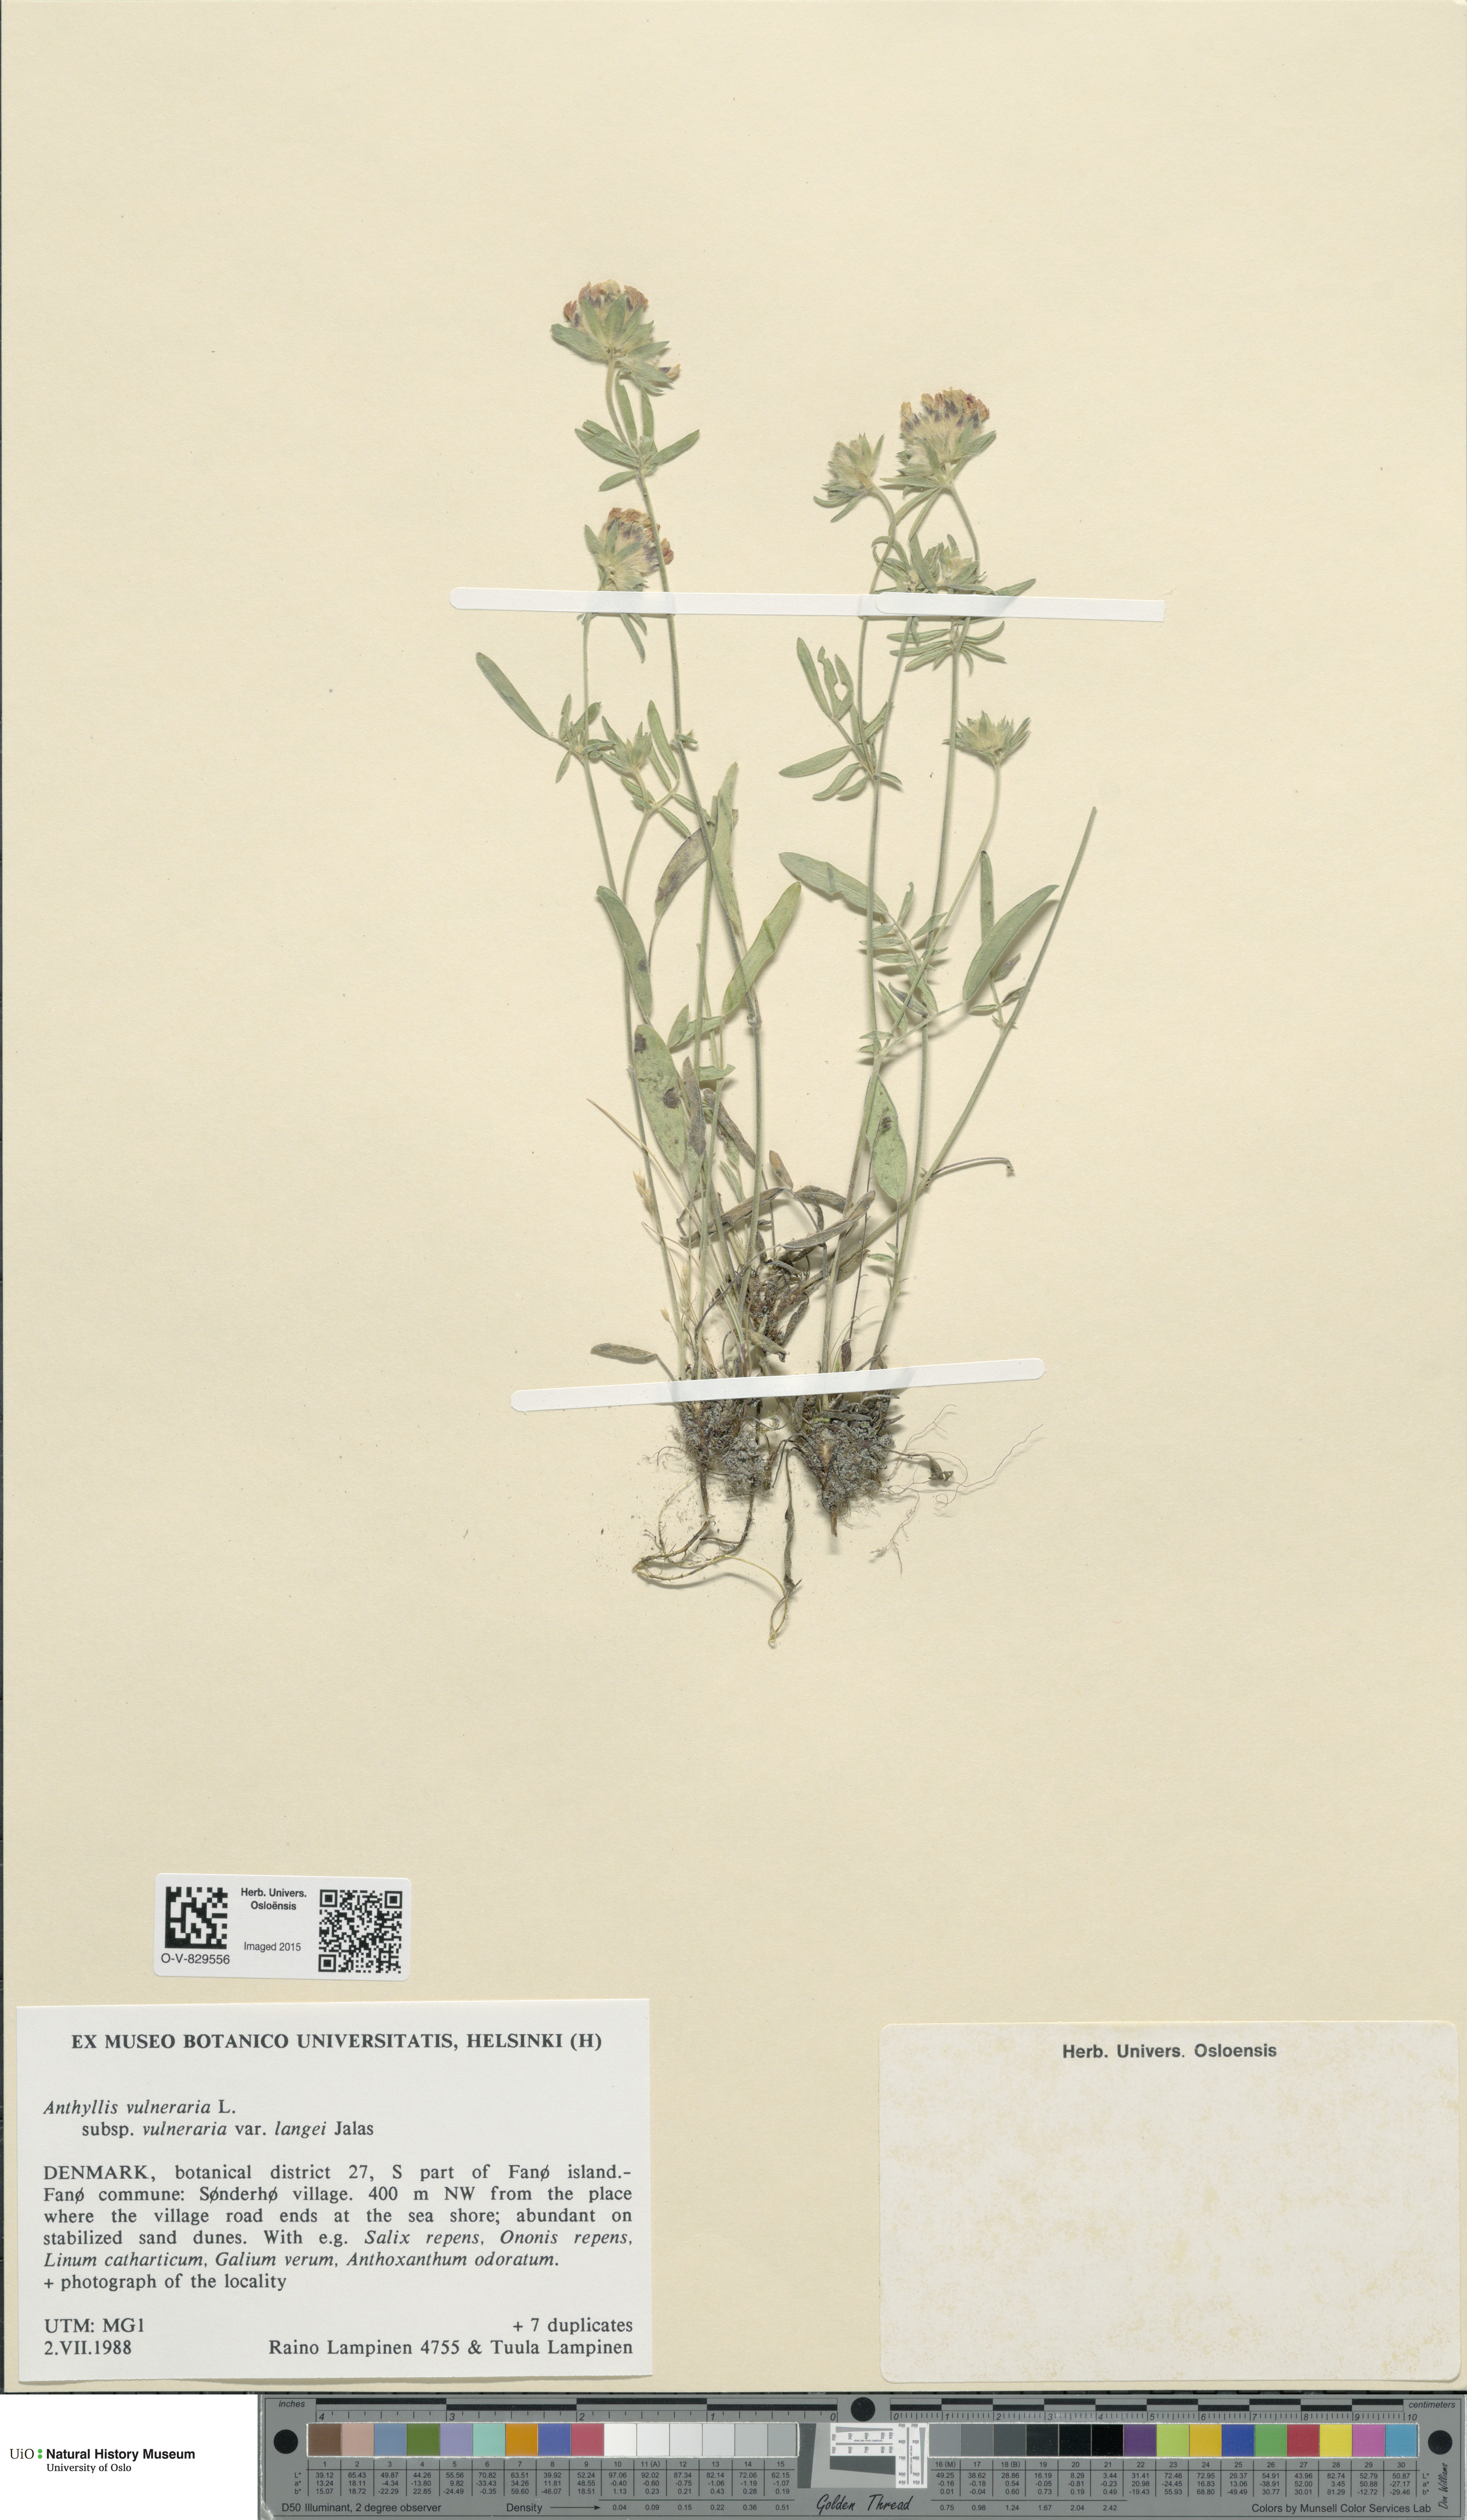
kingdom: Plantae
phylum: Tracheophyta
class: Magnoliopsida
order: Fabales
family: Fabaceae
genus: Anthyllis
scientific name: Anthyllis vulneraria
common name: Kidney vetch
